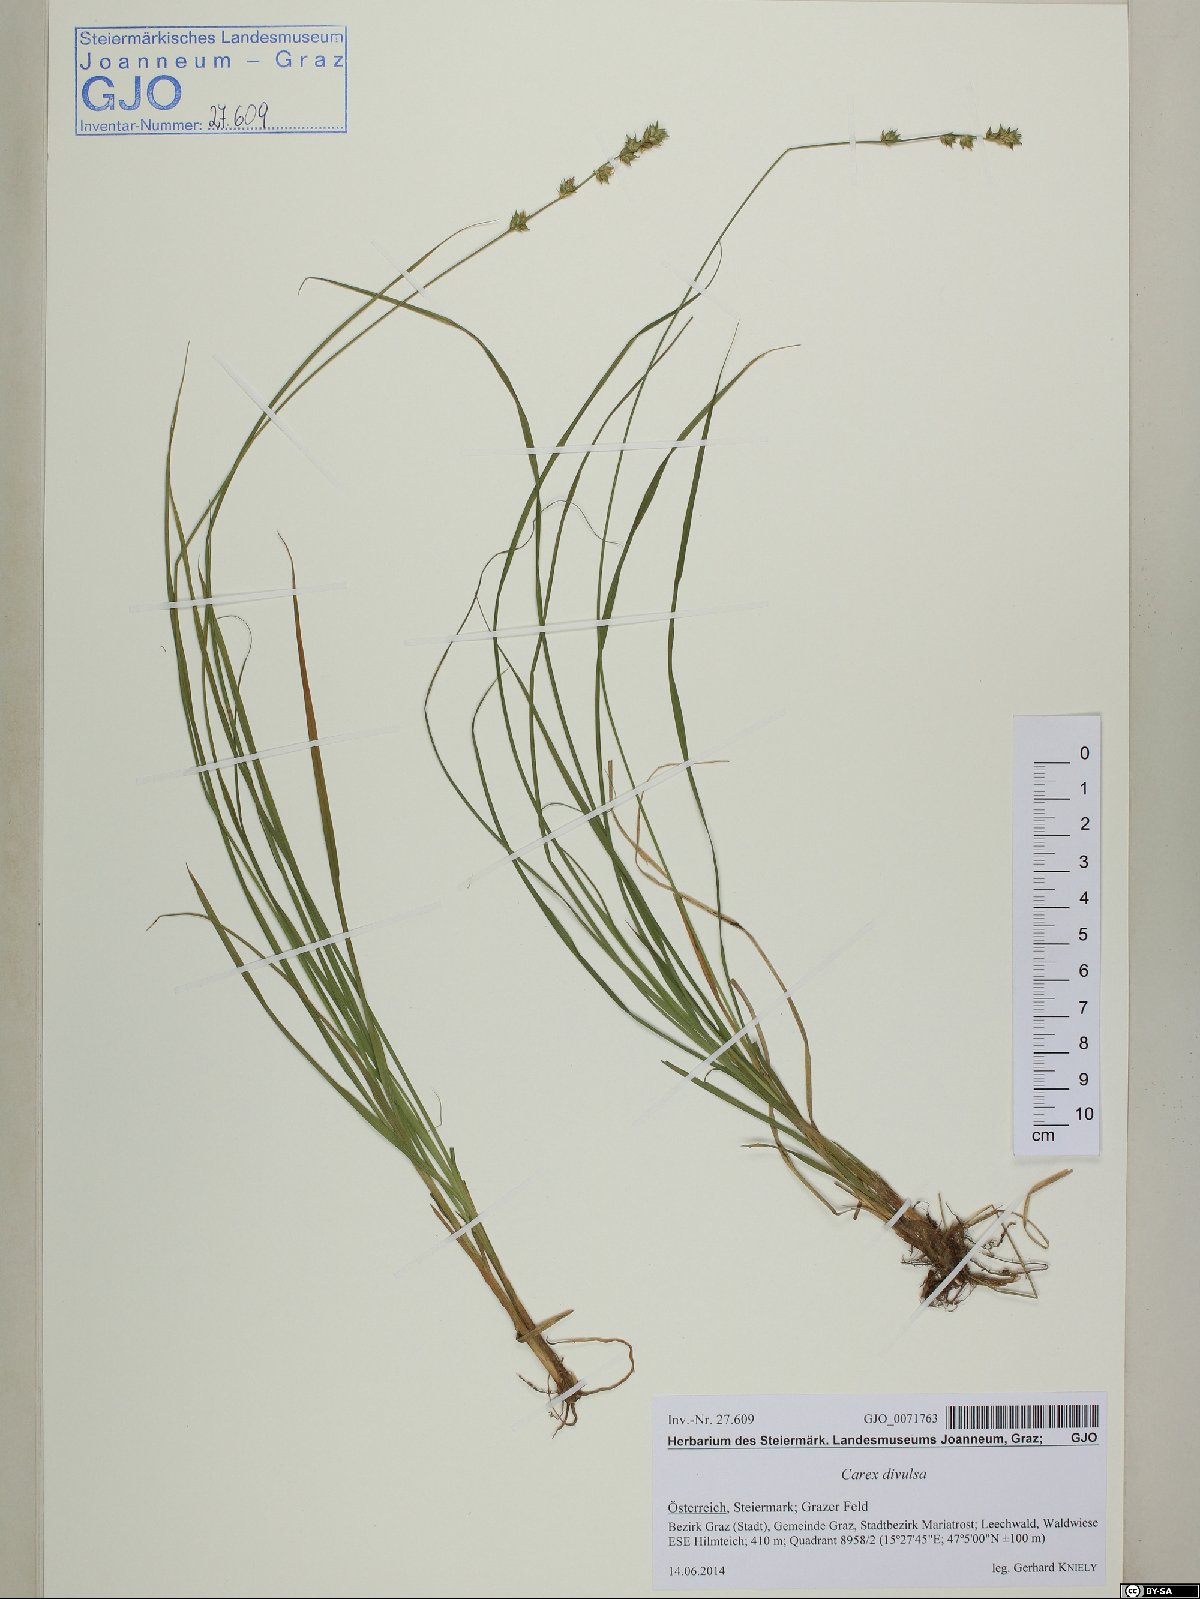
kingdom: Plantae
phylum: Tracheophyta
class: Liliopsida
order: Poales
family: Cyperaceae
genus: Carex
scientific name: Carex divulsa
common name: Grassland sedge
